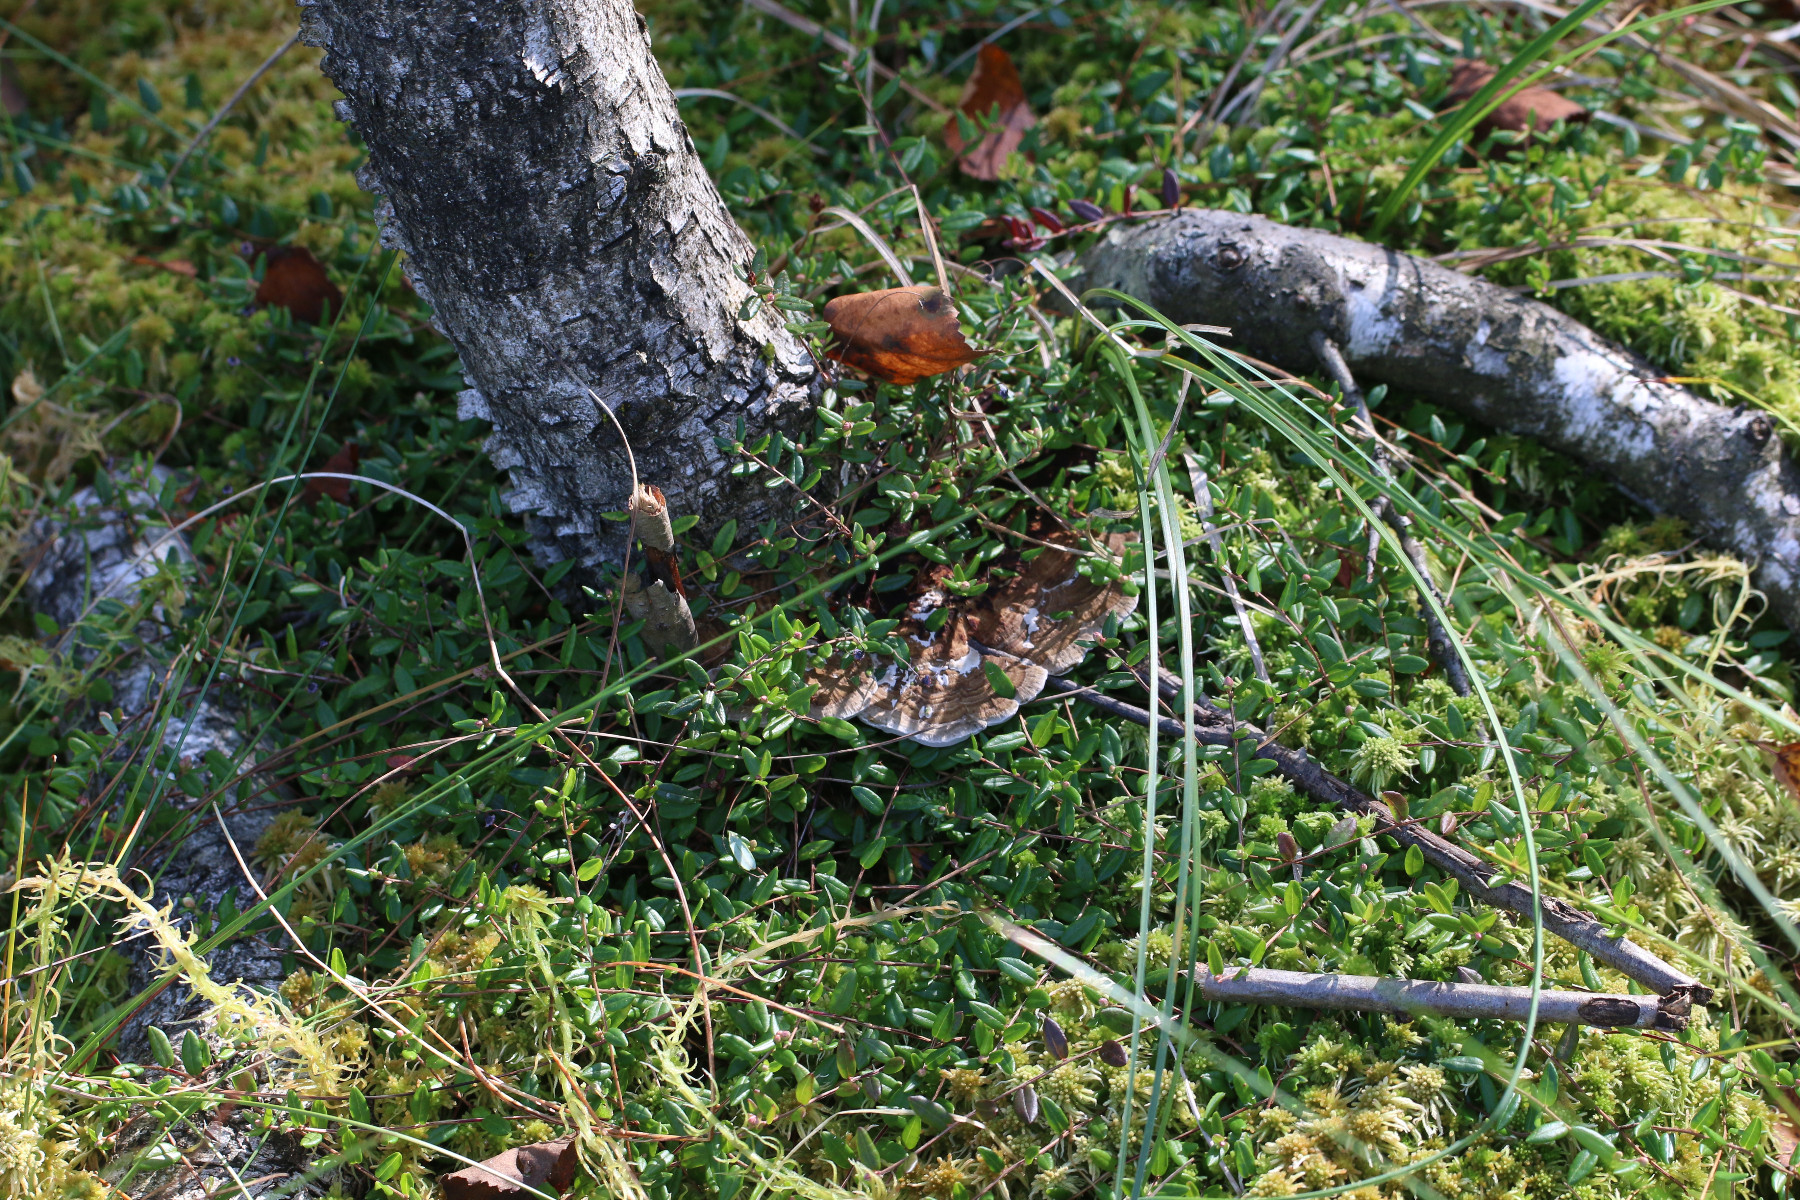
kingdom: Fungi
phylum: Basidiomycota
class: Agaricomycetes
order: Polyporales
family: Polyporaceae
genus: Daedaleopsis
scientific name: Daedaleopsis confragosa
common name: rødmende læderporesvamp
